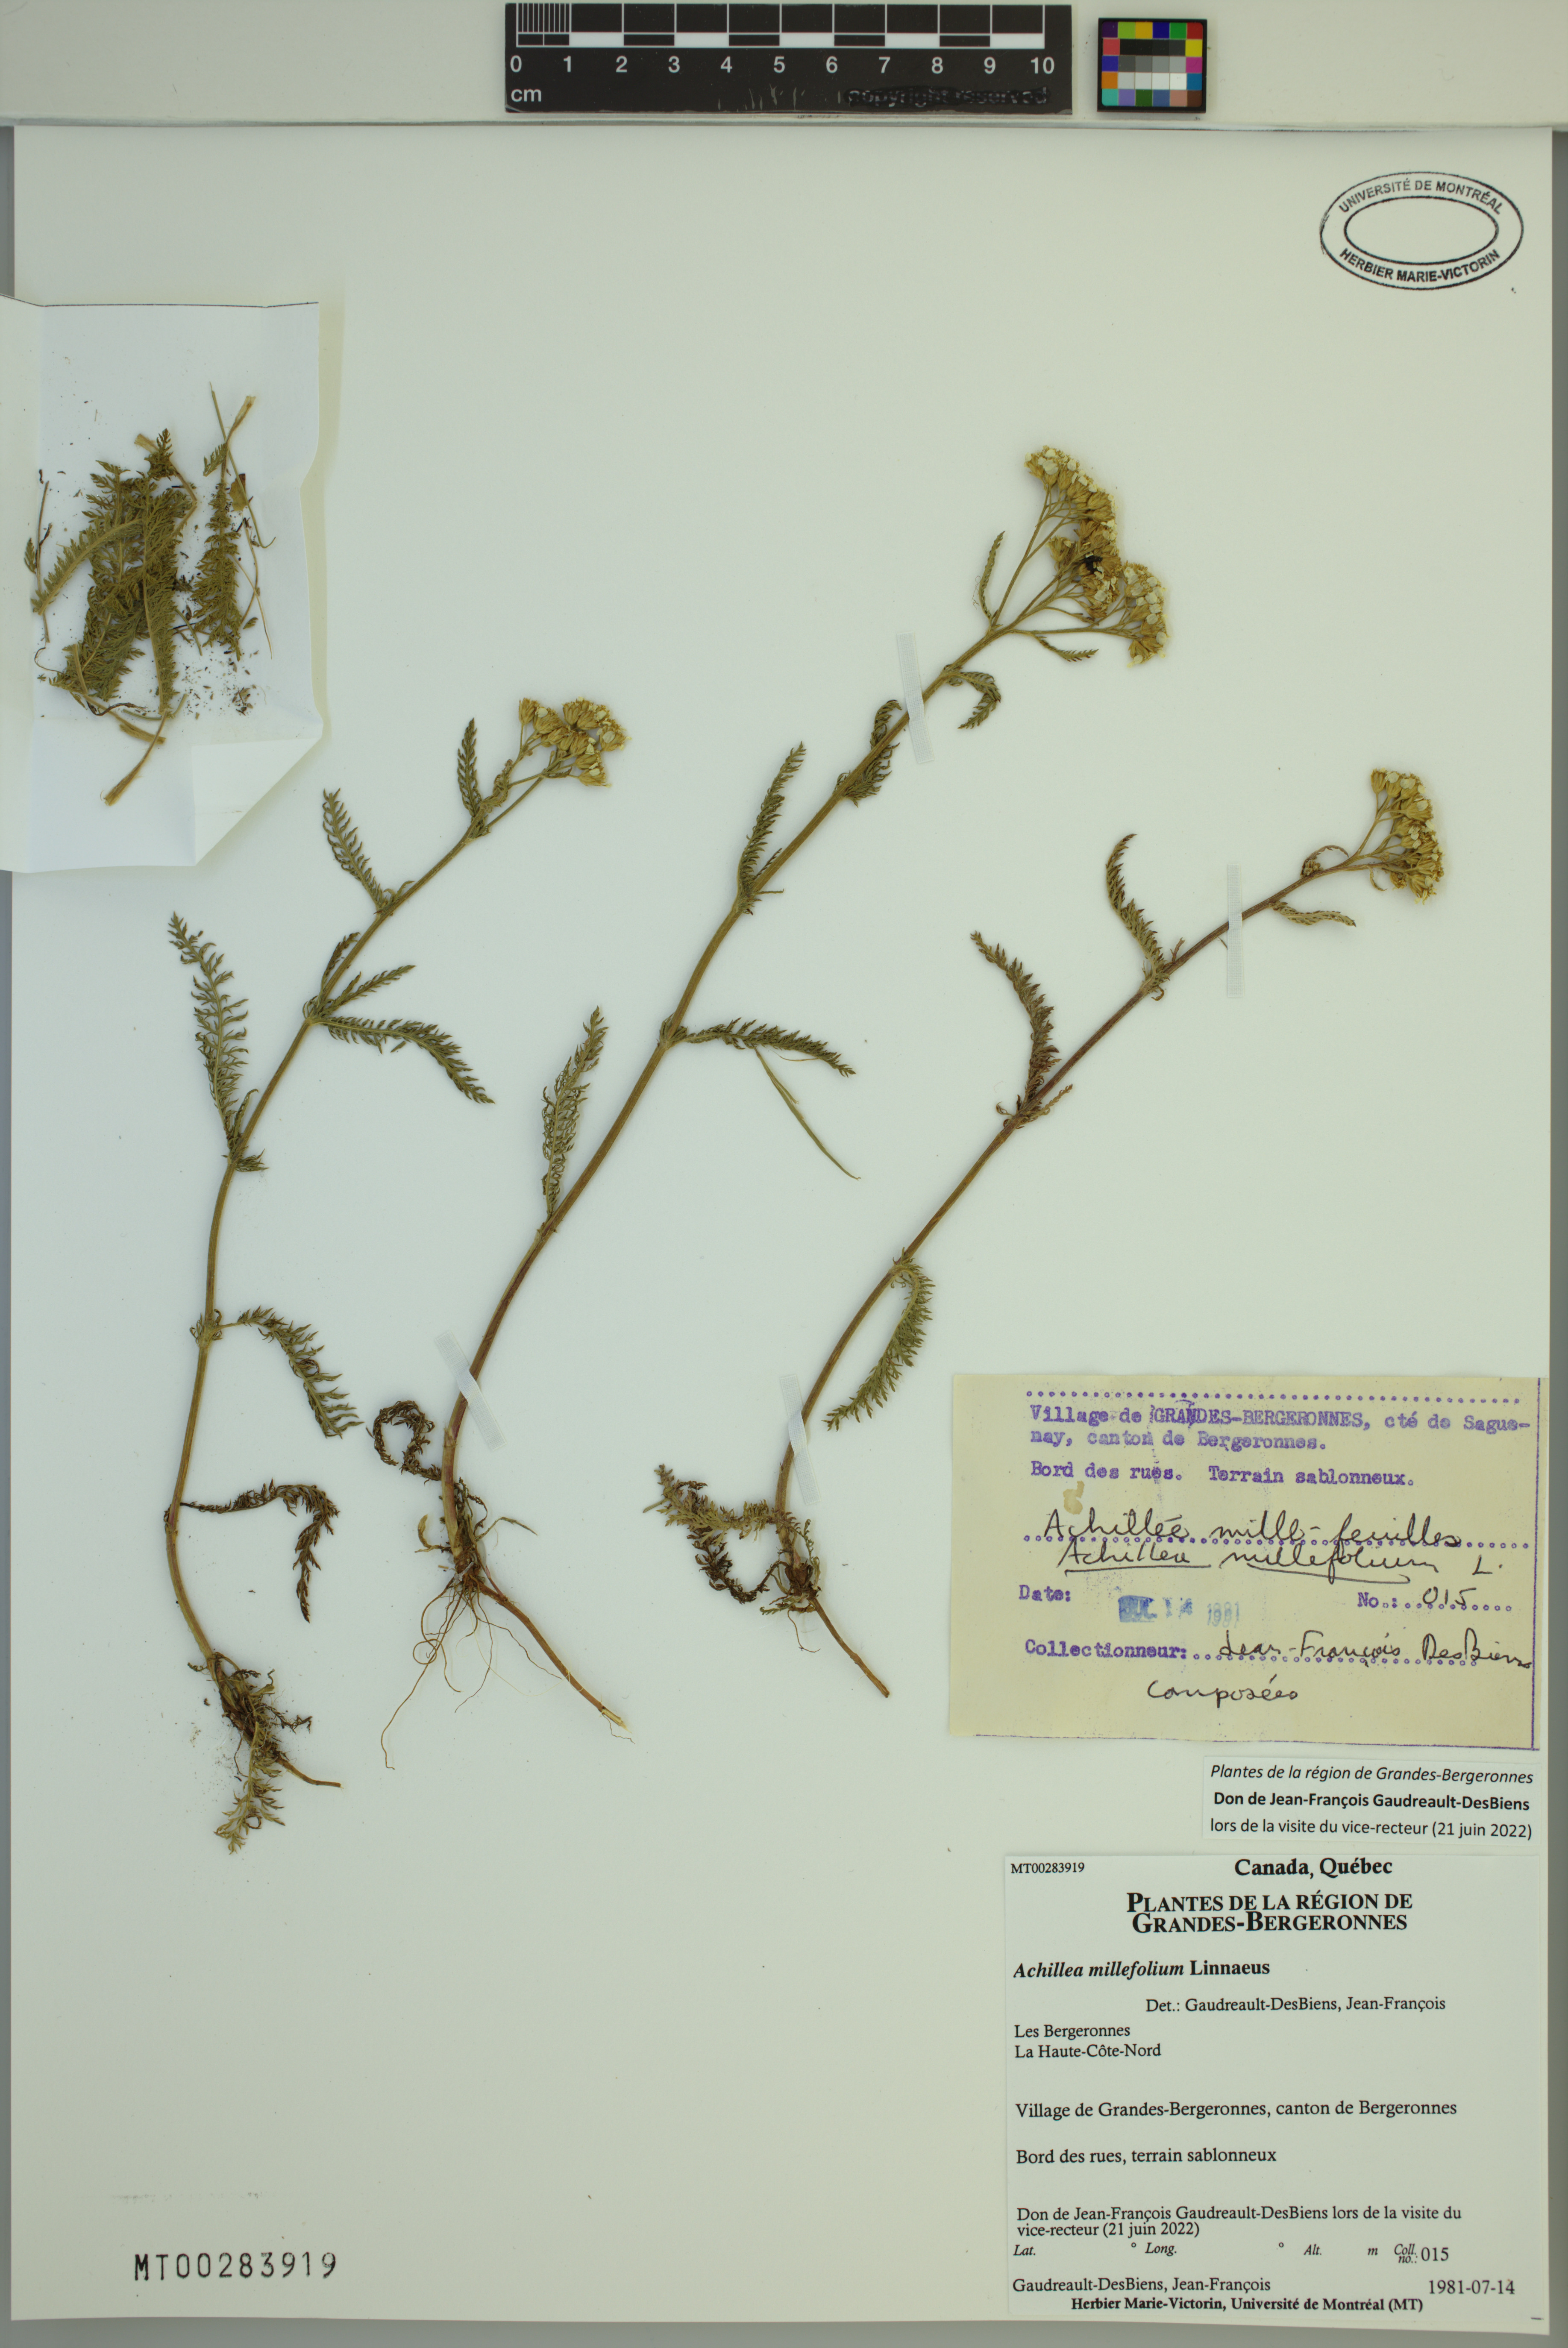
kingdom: Plantae
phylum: Tracheophyta
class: Magnoliopsida
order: Asterales
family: Asteraceae
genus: Achillea
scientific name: Achillea millefolium
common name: Yarrow
